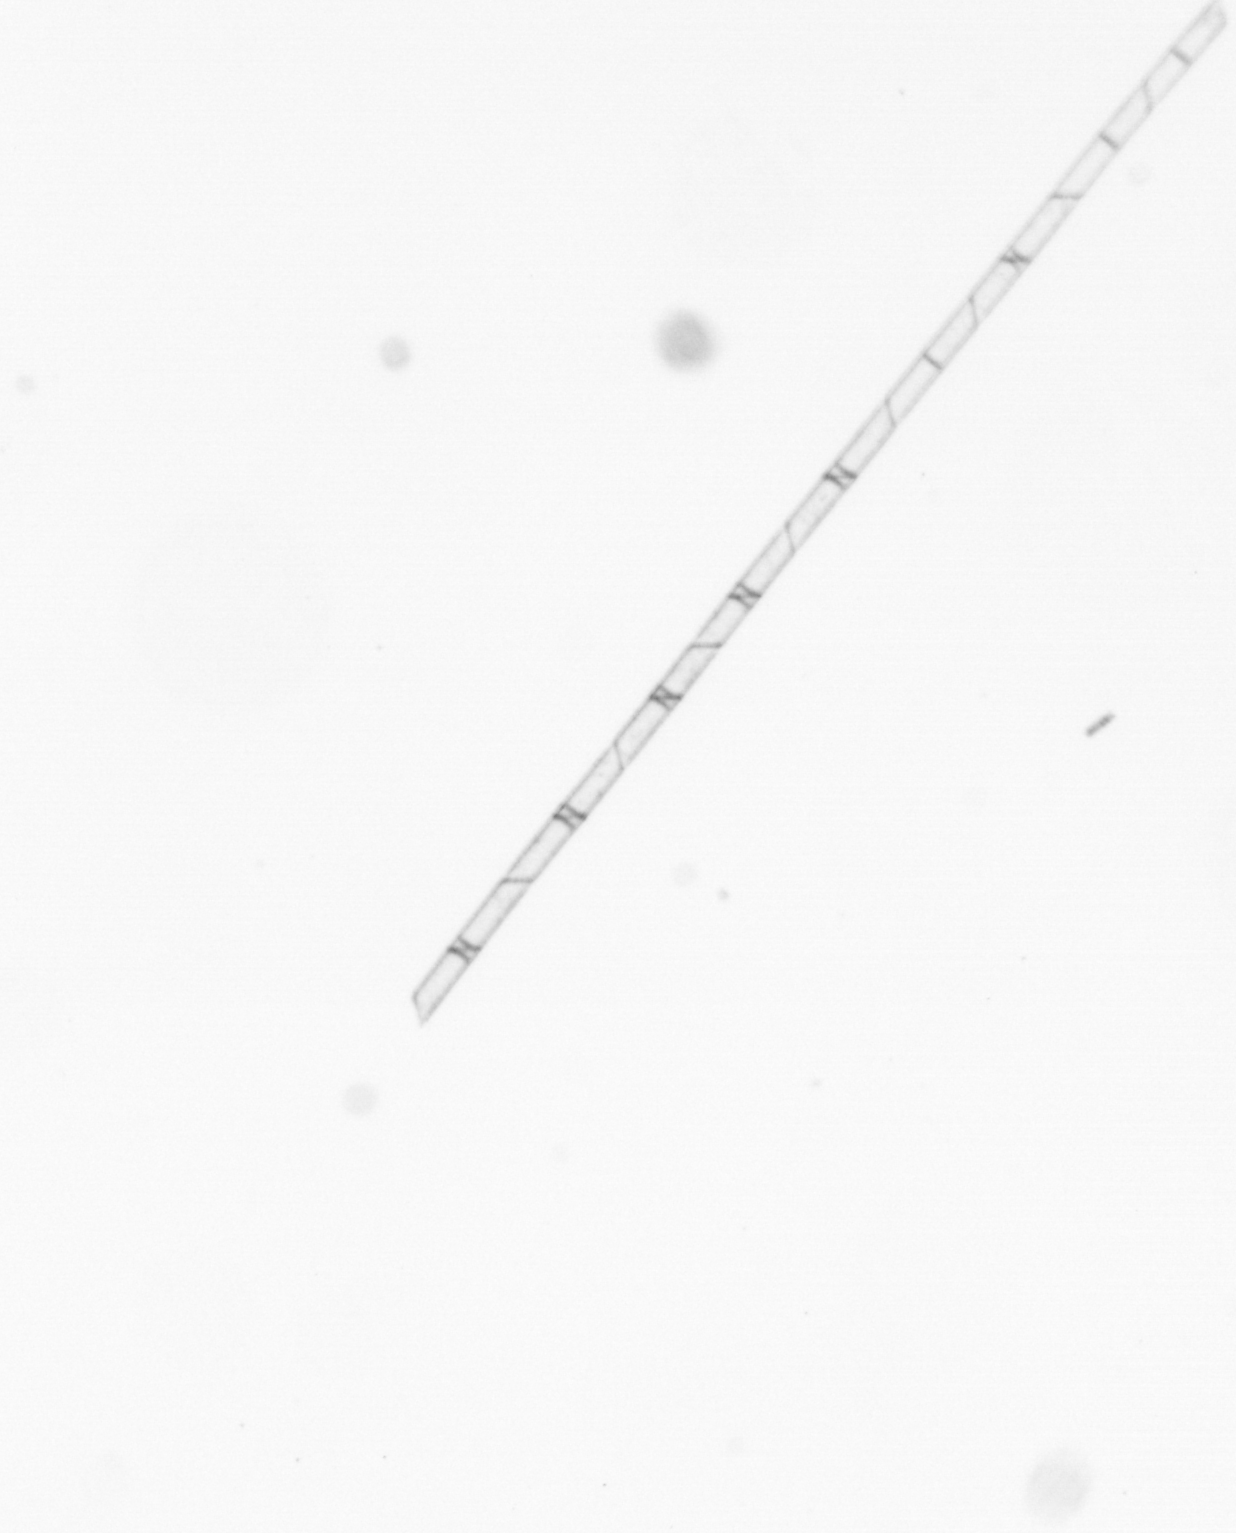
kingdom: Chromista
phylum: Ochrophyta
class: Bacillariophyceae
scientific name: Bacillariophyceae
